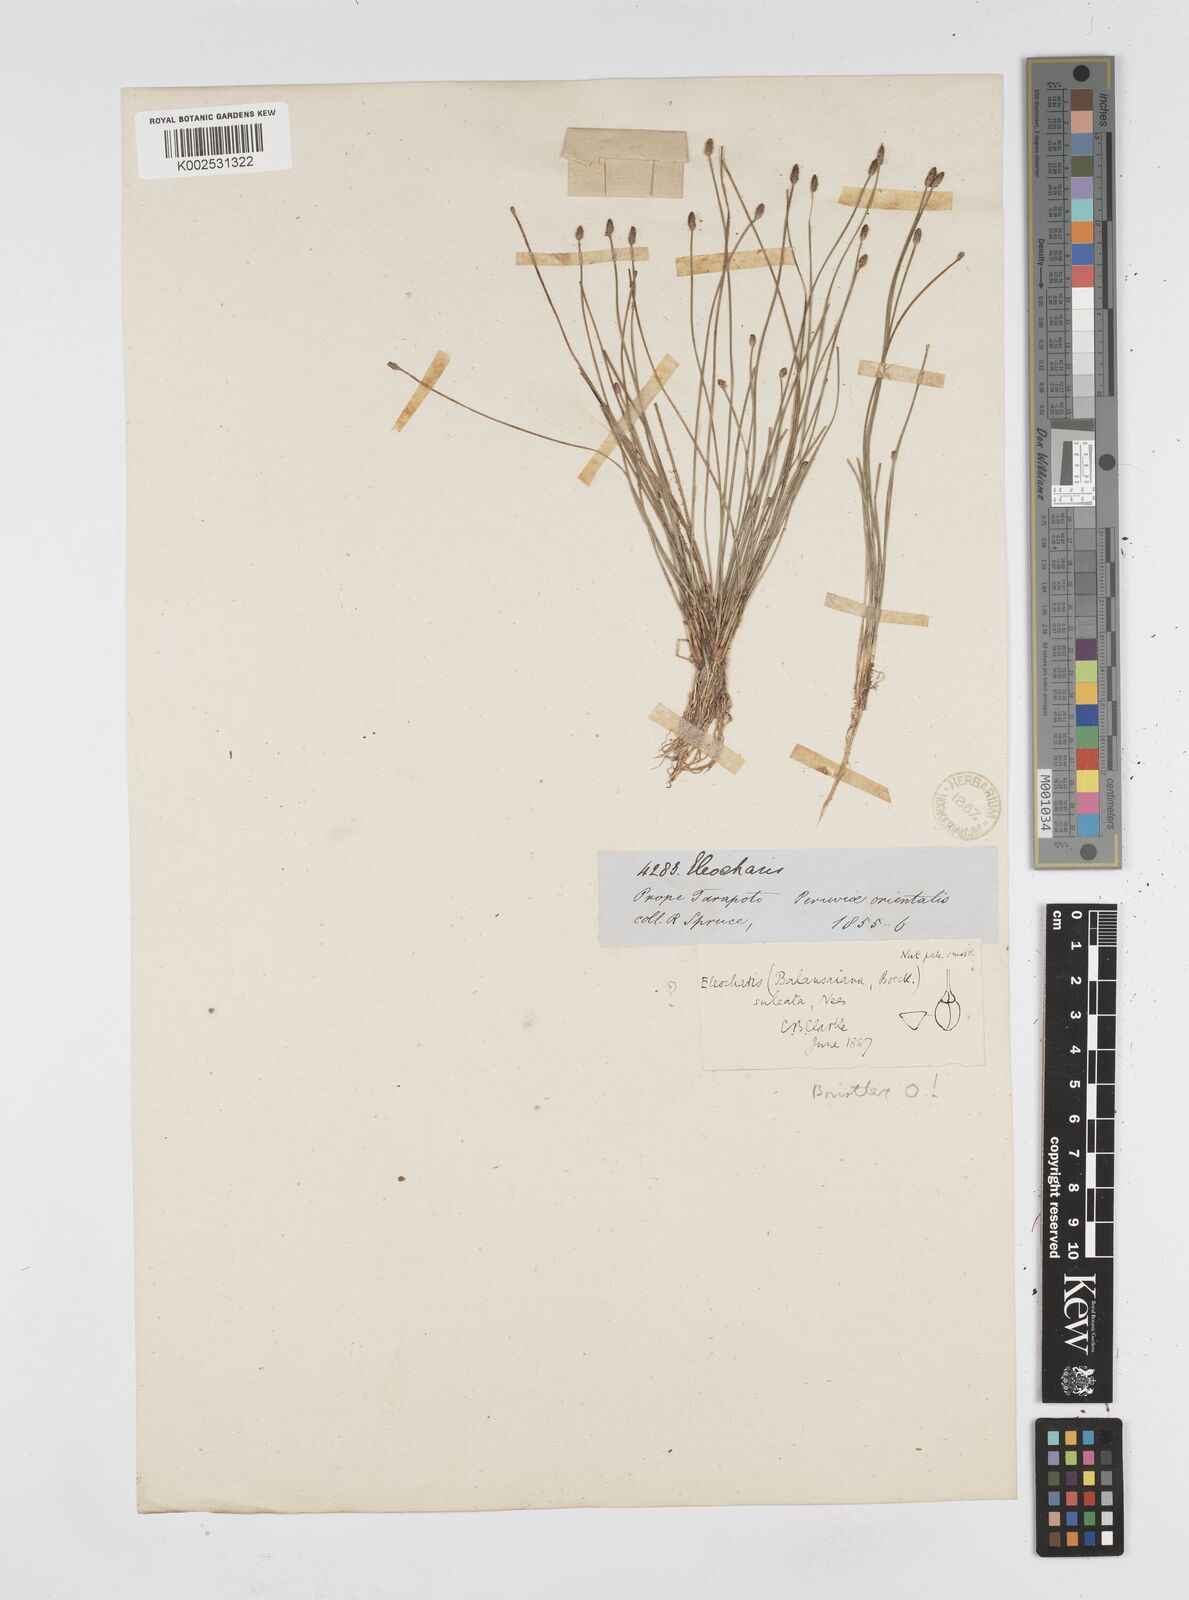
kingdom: Plantae
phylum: Tracheophyta
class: Liliopsida
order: Poales
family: Cyperaceae
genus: Eleocharis
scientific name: Eleocharis filiculmis
